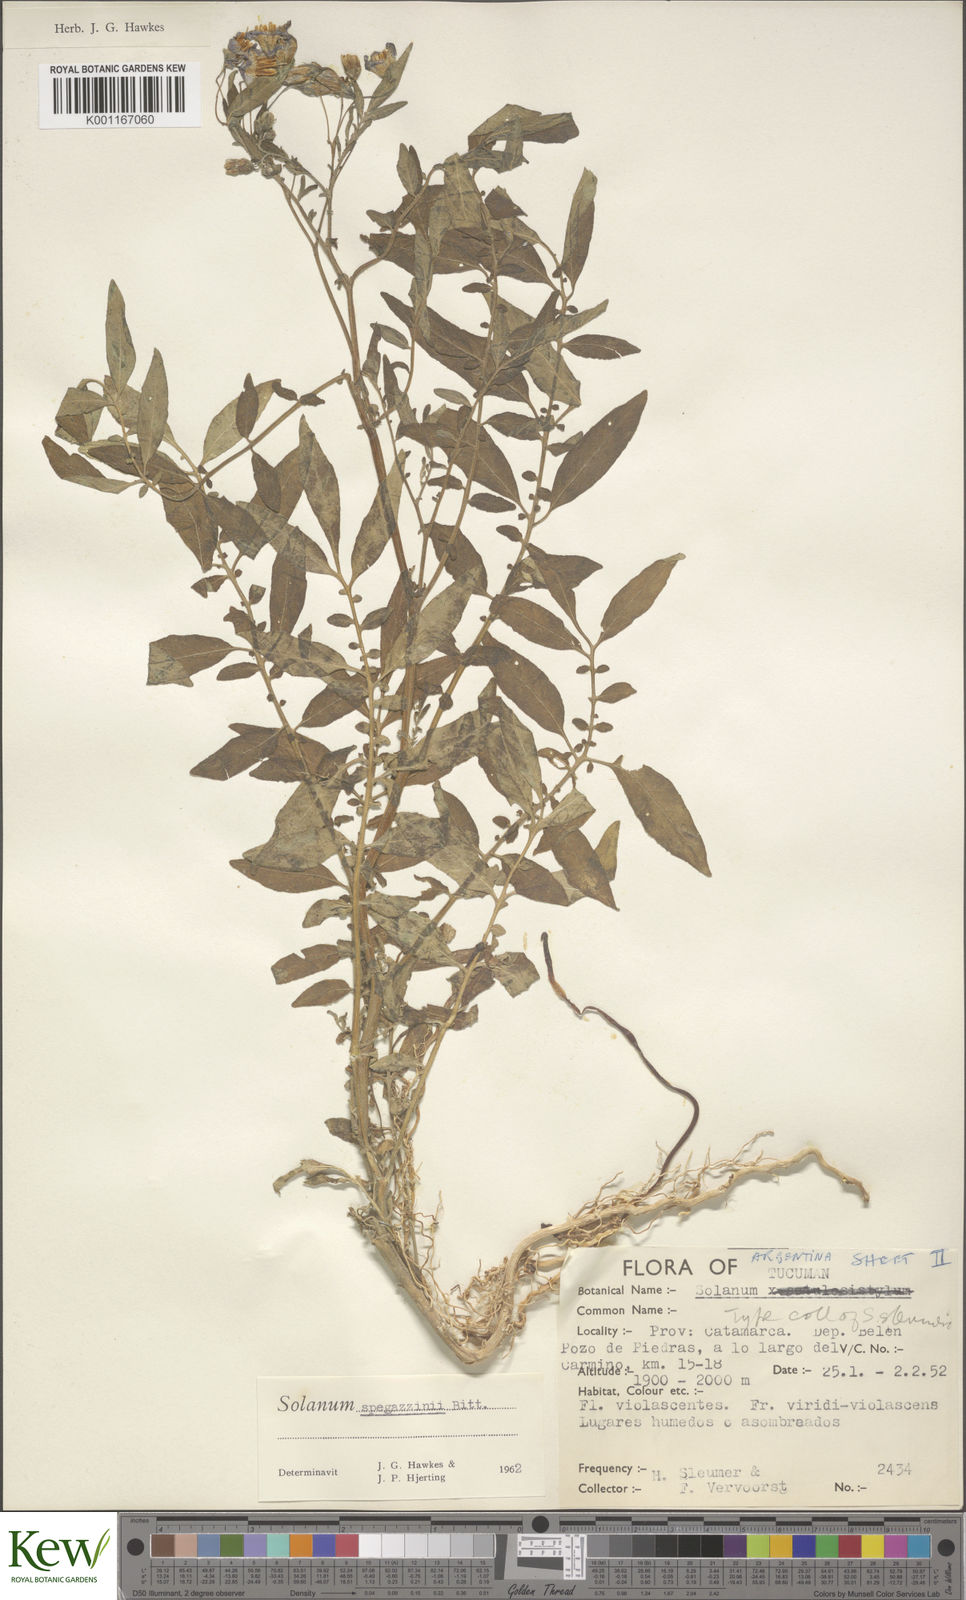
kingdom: Plantae
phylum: Tracheophyta
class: Magnoliopsida
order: Solanales
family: Solanaceae
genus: Solanum
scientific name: Solanum brevicaule
